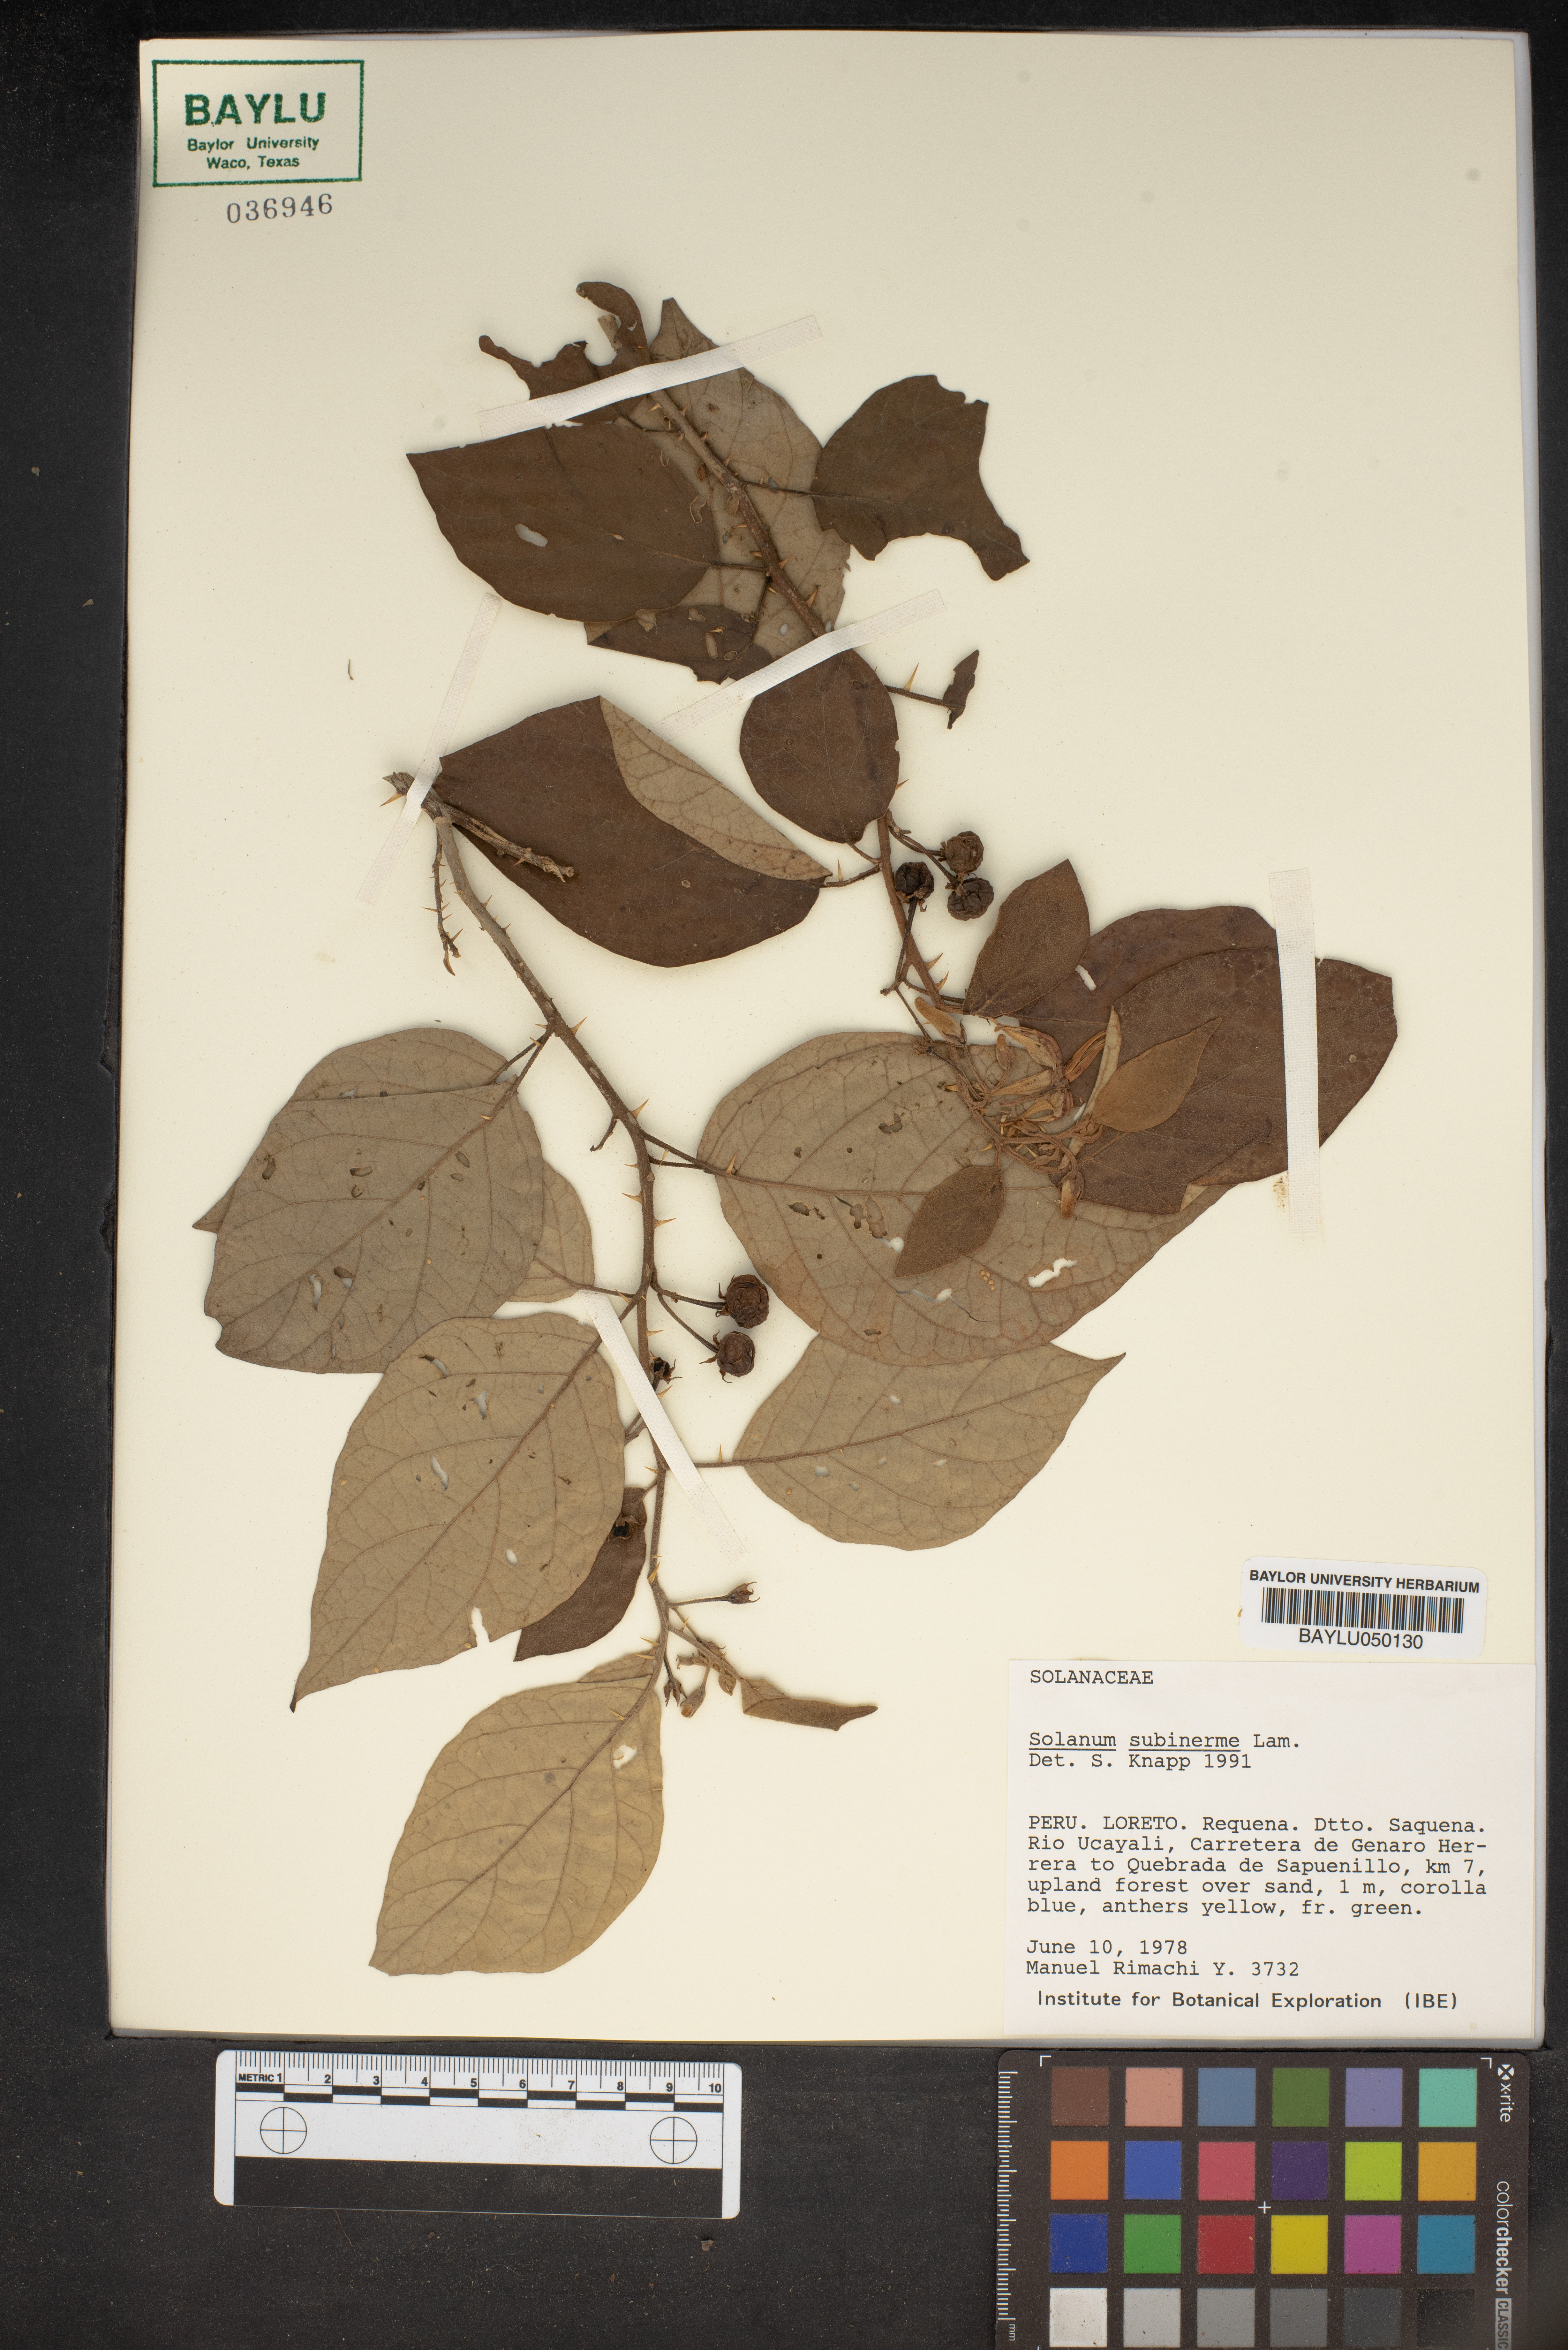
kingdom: Plantae
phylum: Tracheophyta
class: Magnoliopsida
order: Solanales
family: Solanaceae
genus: Solanum
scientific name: Solanum subinerme
